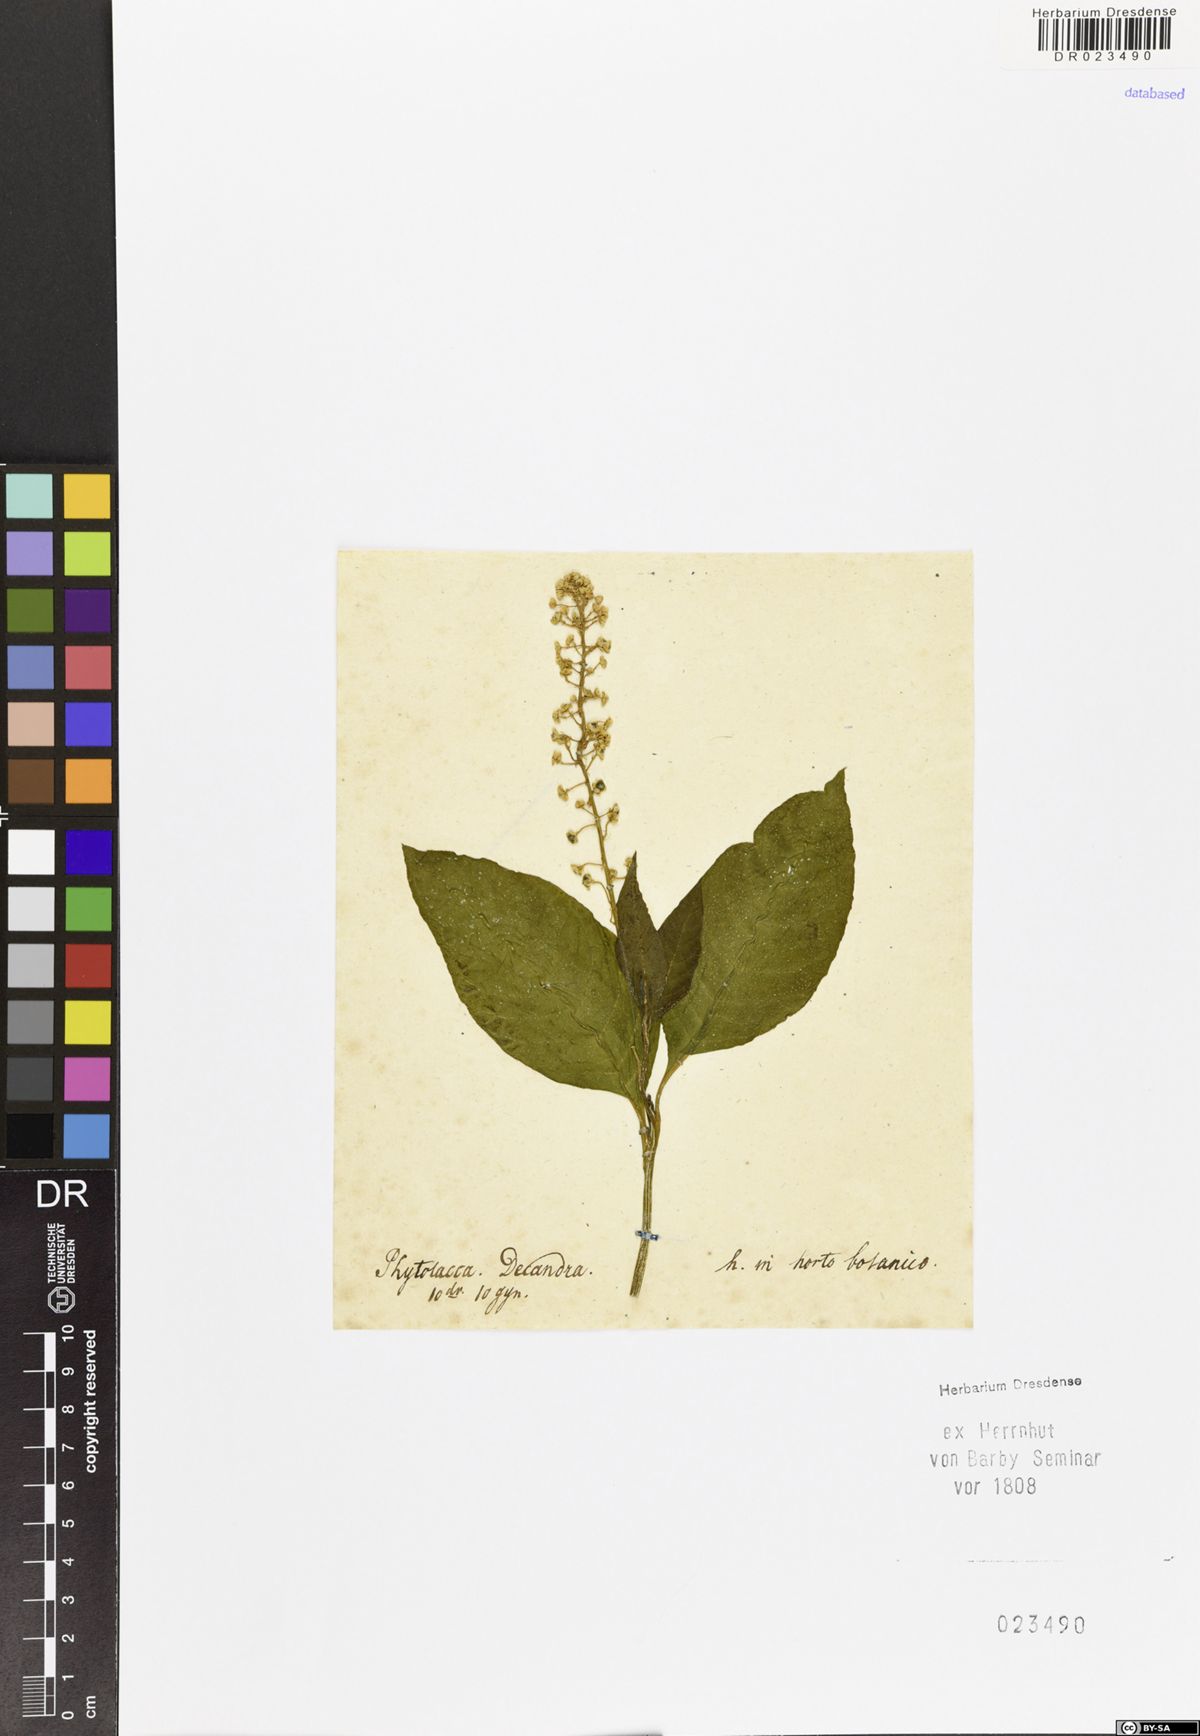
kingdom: Plantae
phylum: Tracheophyta
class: Magnoliopsida
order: Caryophyllales
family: Phytolaccaceae
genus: Phytolacca
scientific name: Phytolacca americana
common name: American pokeweed
